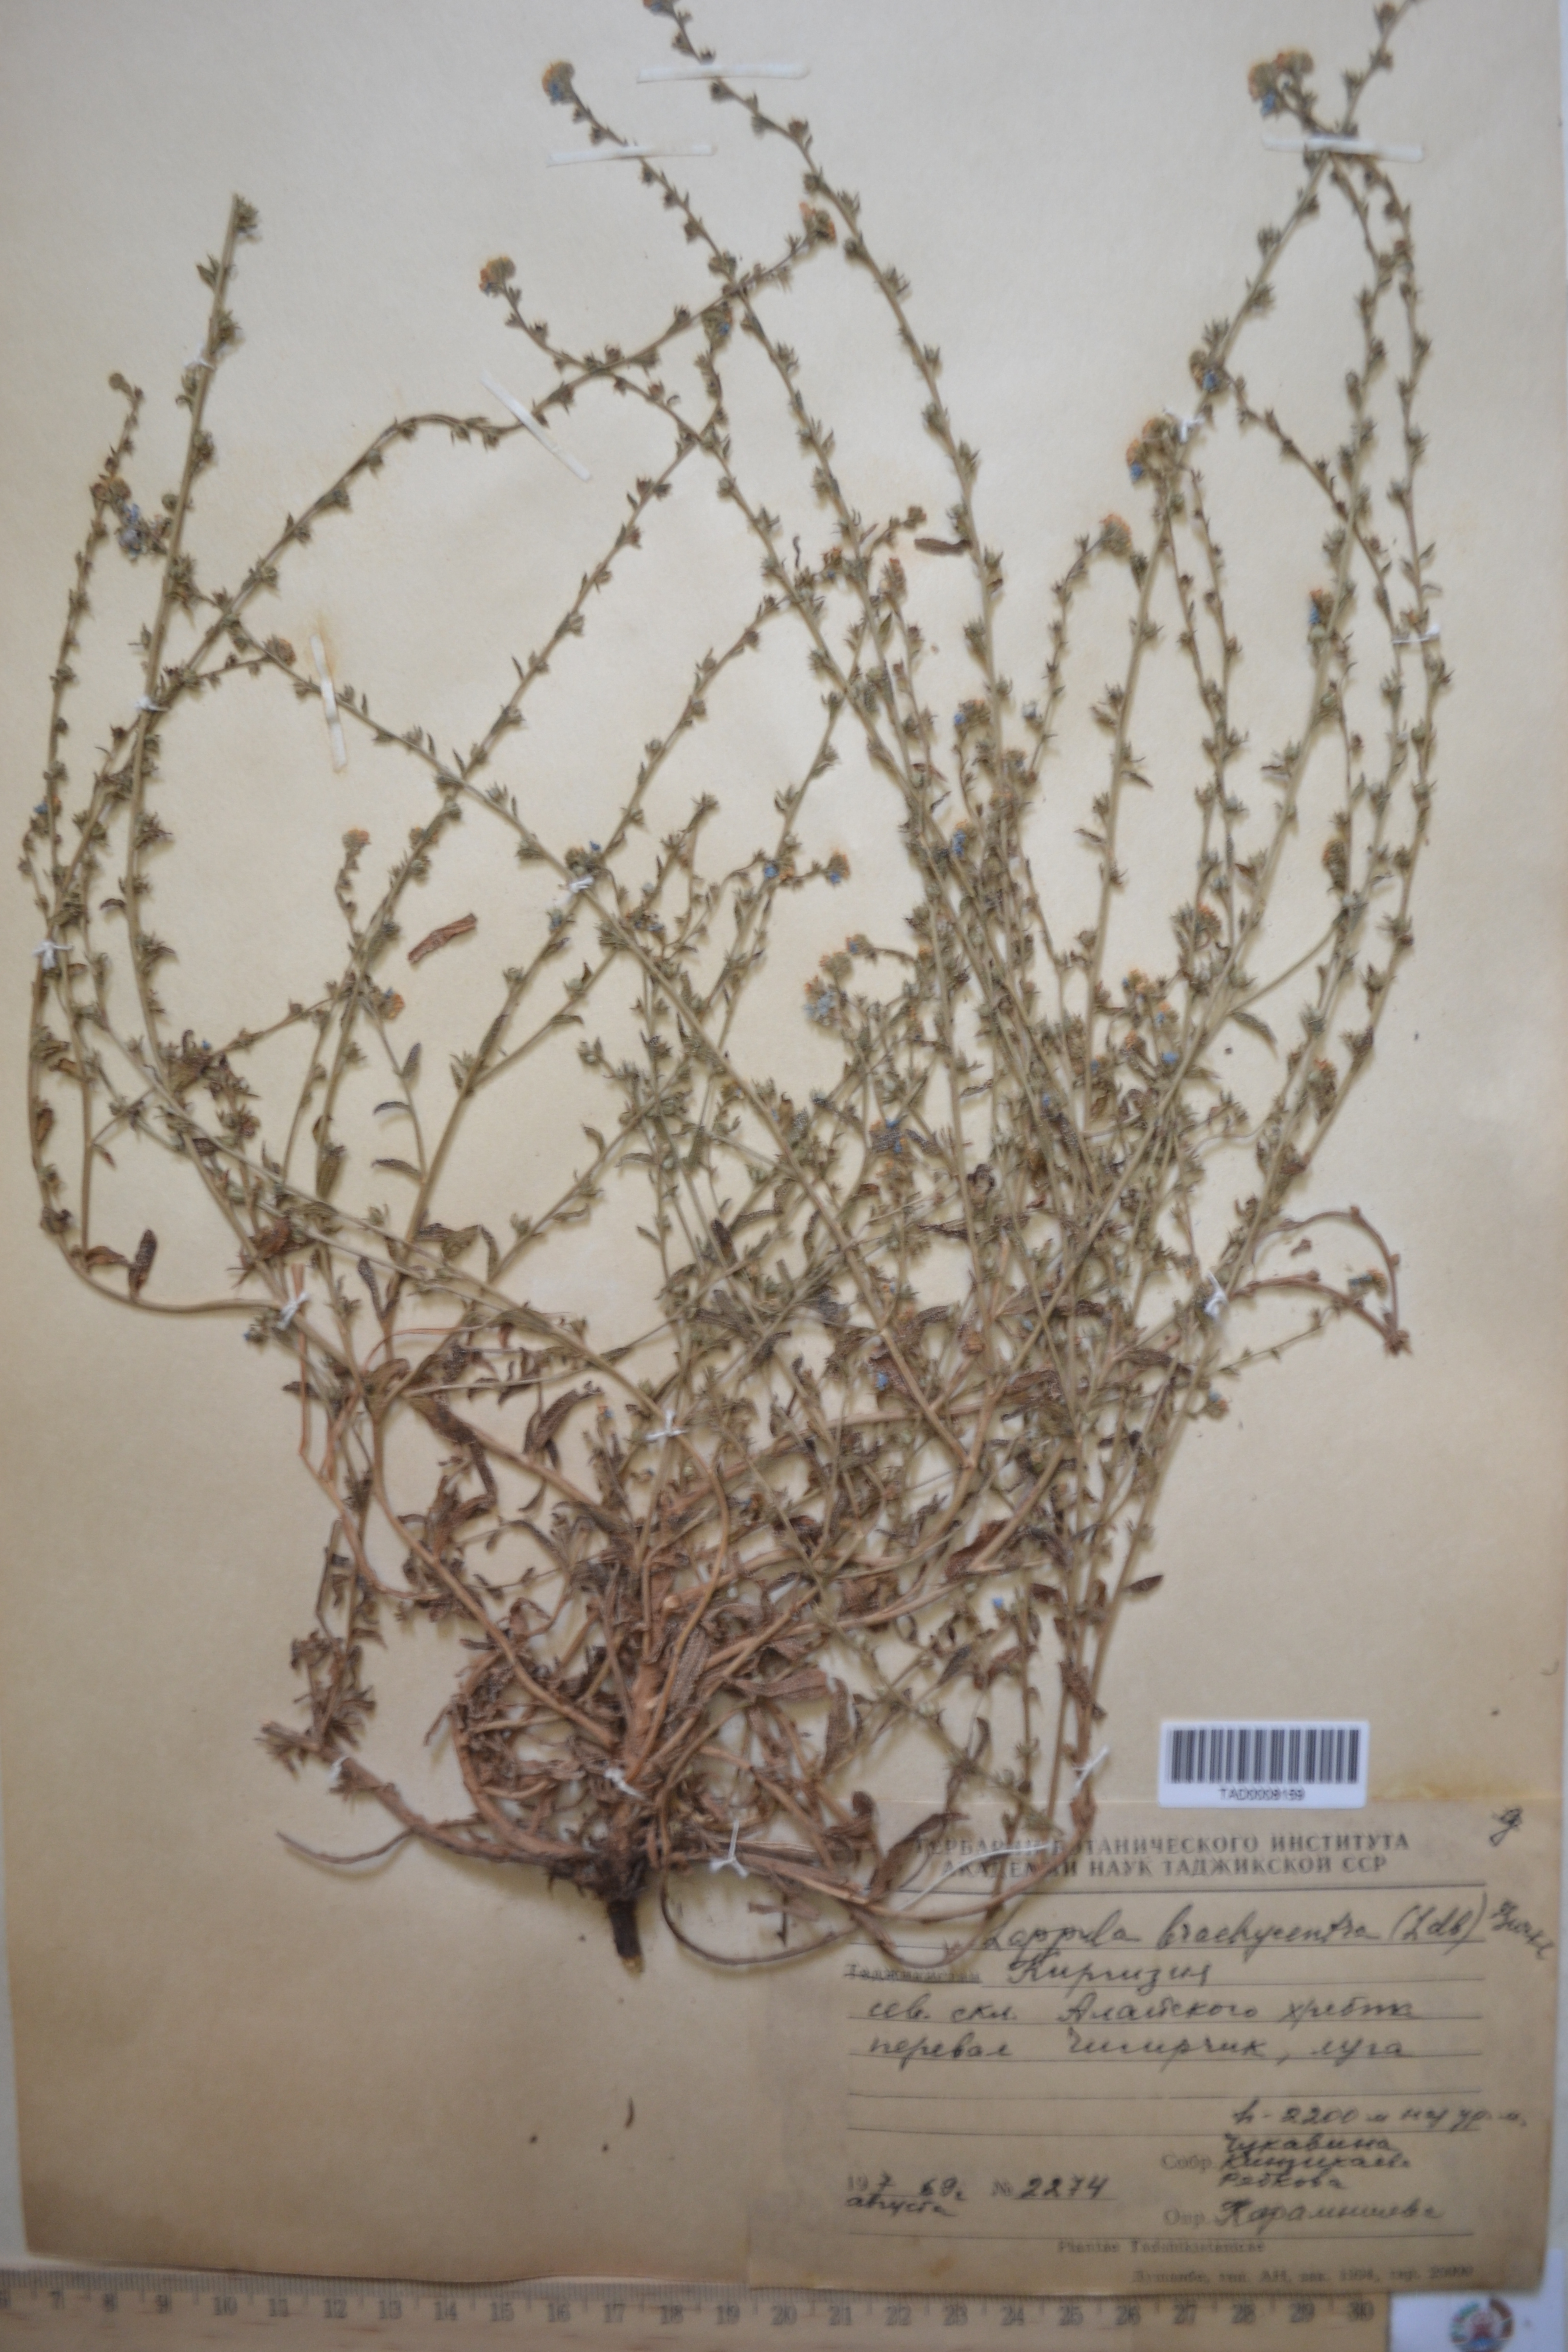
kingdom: Plantae
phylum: Tracheophyta
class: Magnoliopsida
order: Boraginales
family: Boraginaceae
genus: Lappula
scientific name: Lappula brachycentra
